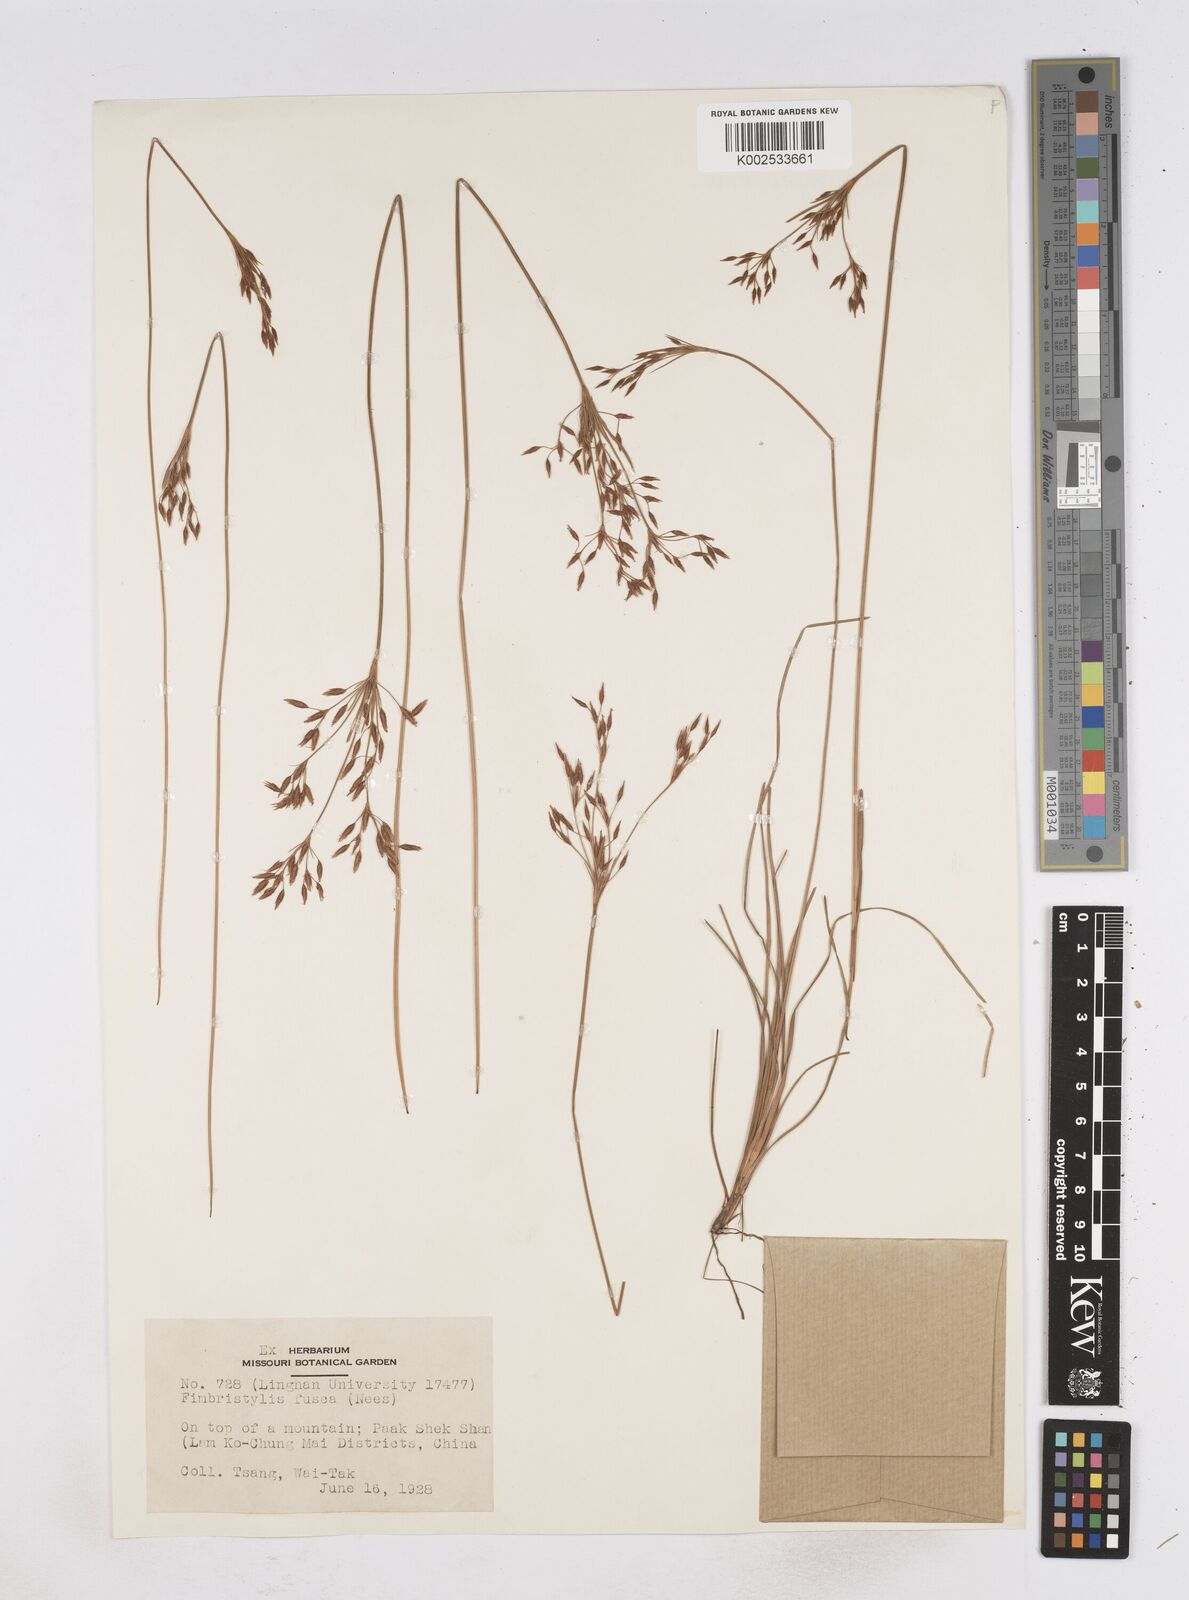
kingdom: Plantae
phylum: Tracheophyta
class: Liliopsida
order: Poales
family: Cyperaceae
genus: Fimbristylis
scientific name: Fimbristylis fusca
